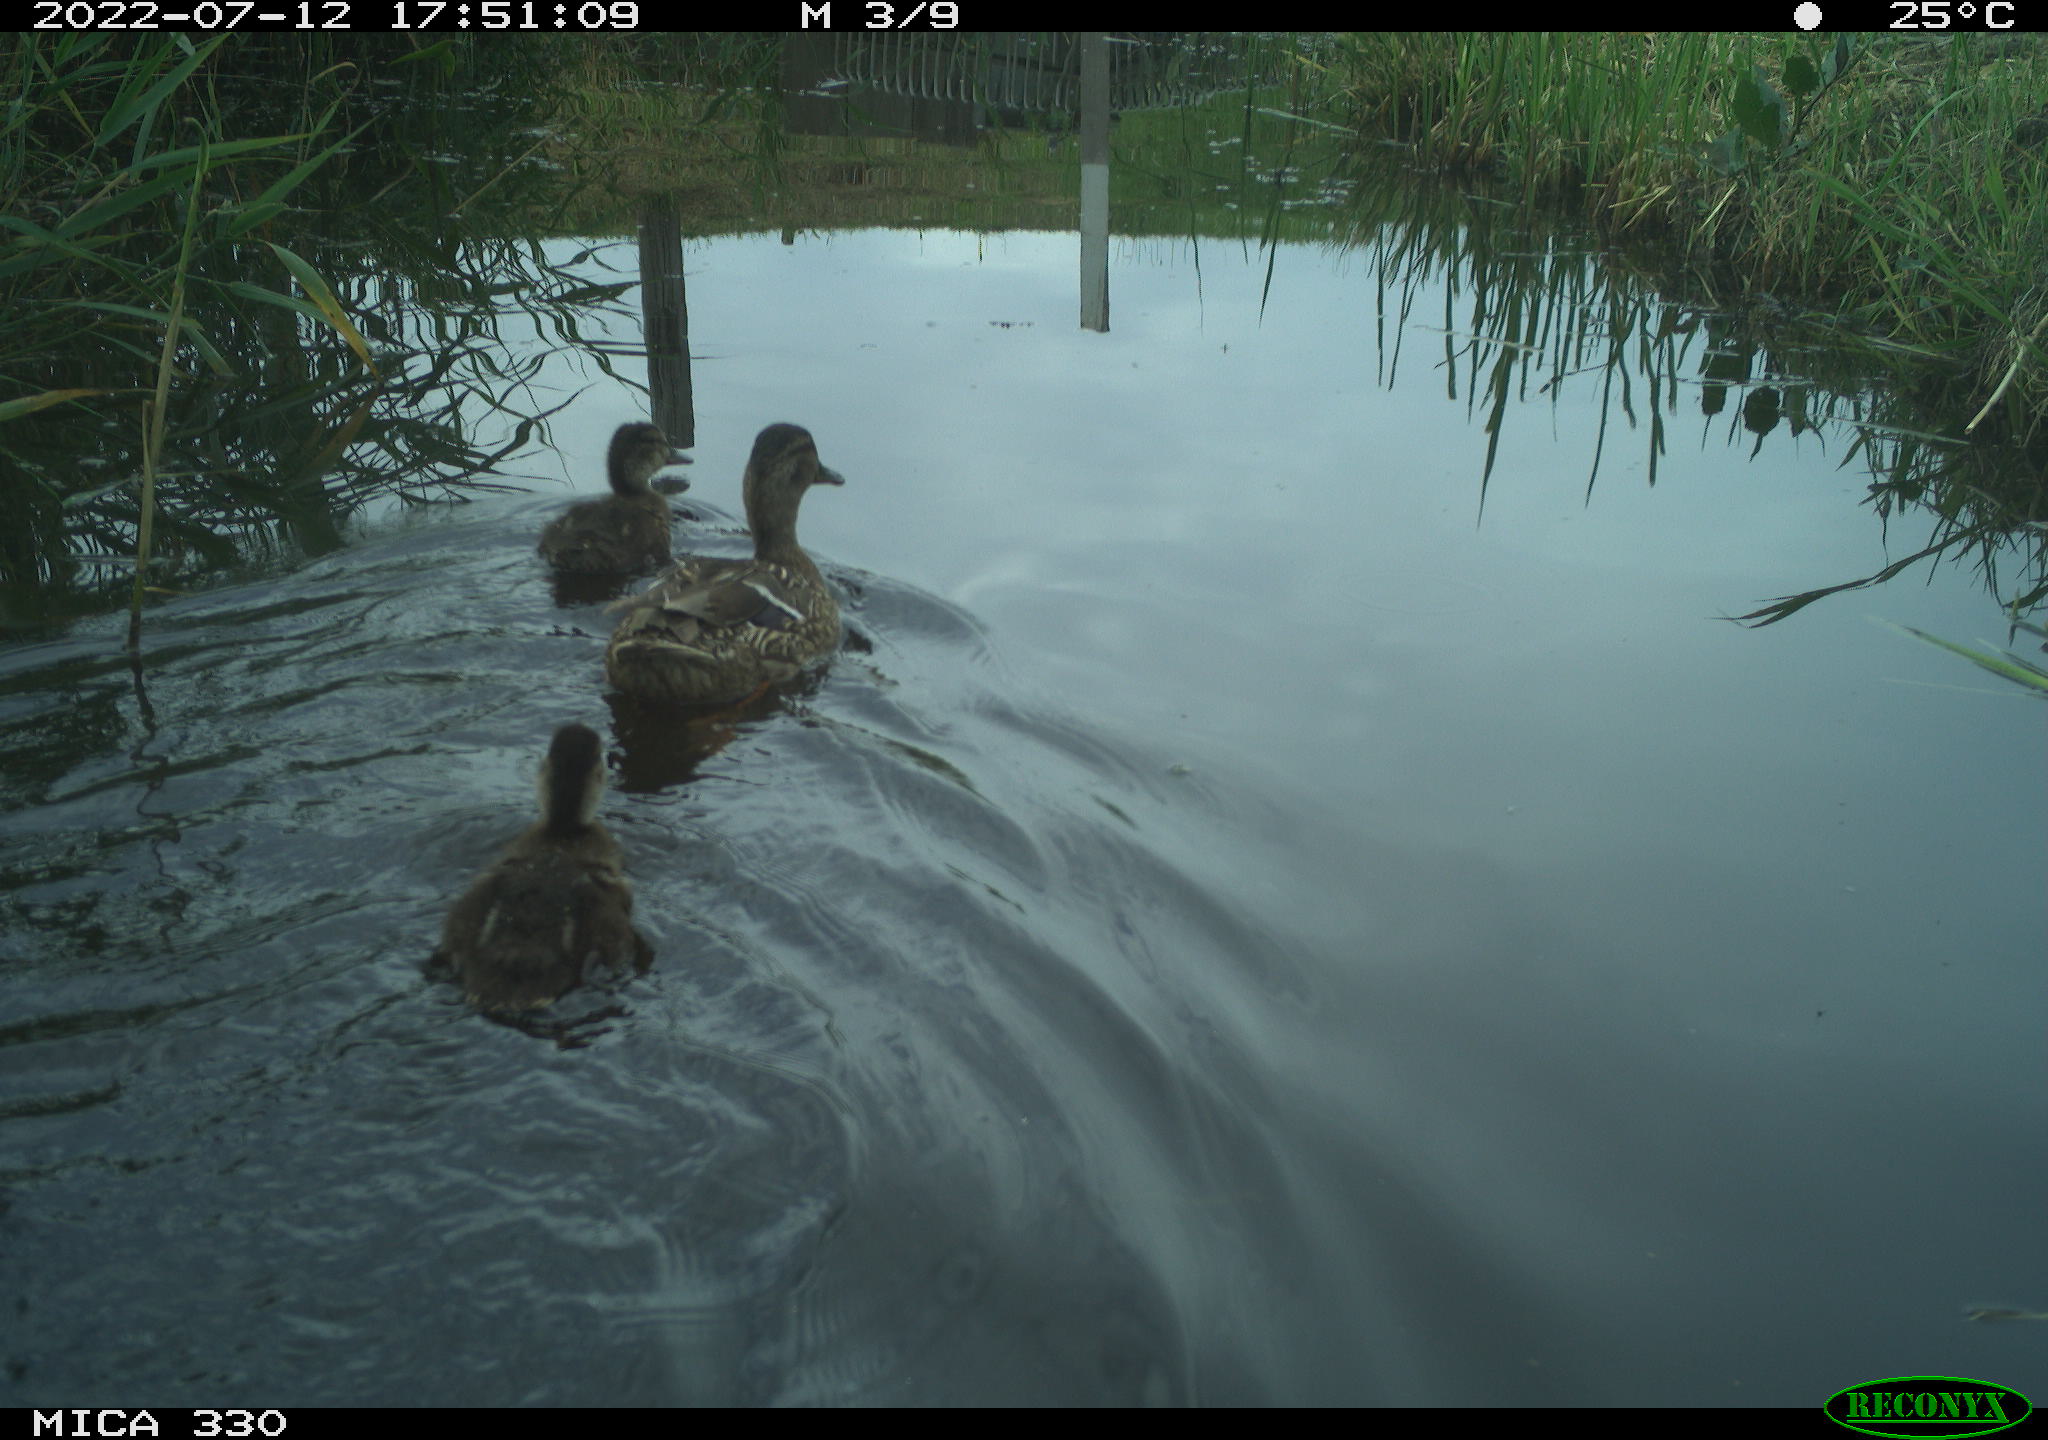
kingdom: Animalia
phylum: Chordata
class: Aves
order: Anseriformes
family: Anatidae
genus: Mareca
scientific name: Mareca strepera
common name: Gadwall
